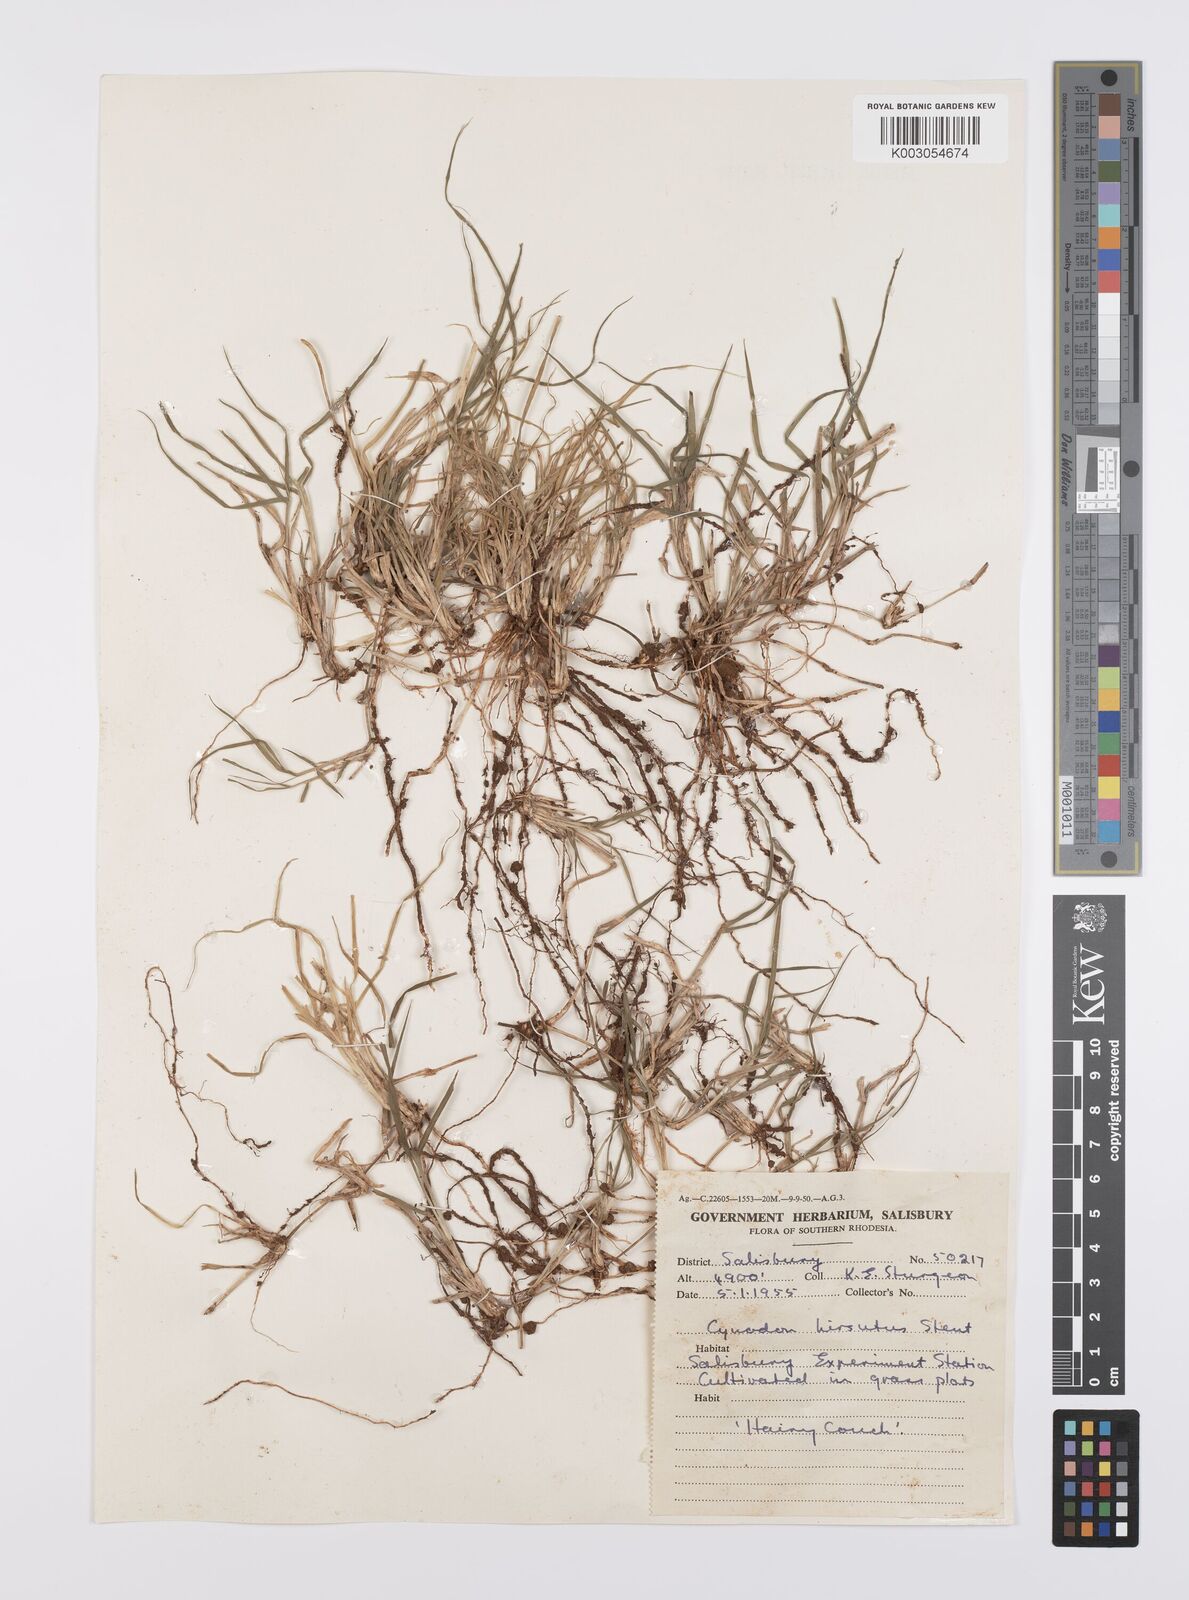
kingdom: Plantae
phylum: Tracheophyta
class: Liliopsida
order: Poales
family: Poaceae
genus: Cynodon
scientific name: Cynodon incompletus
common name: African bermuda-grass
